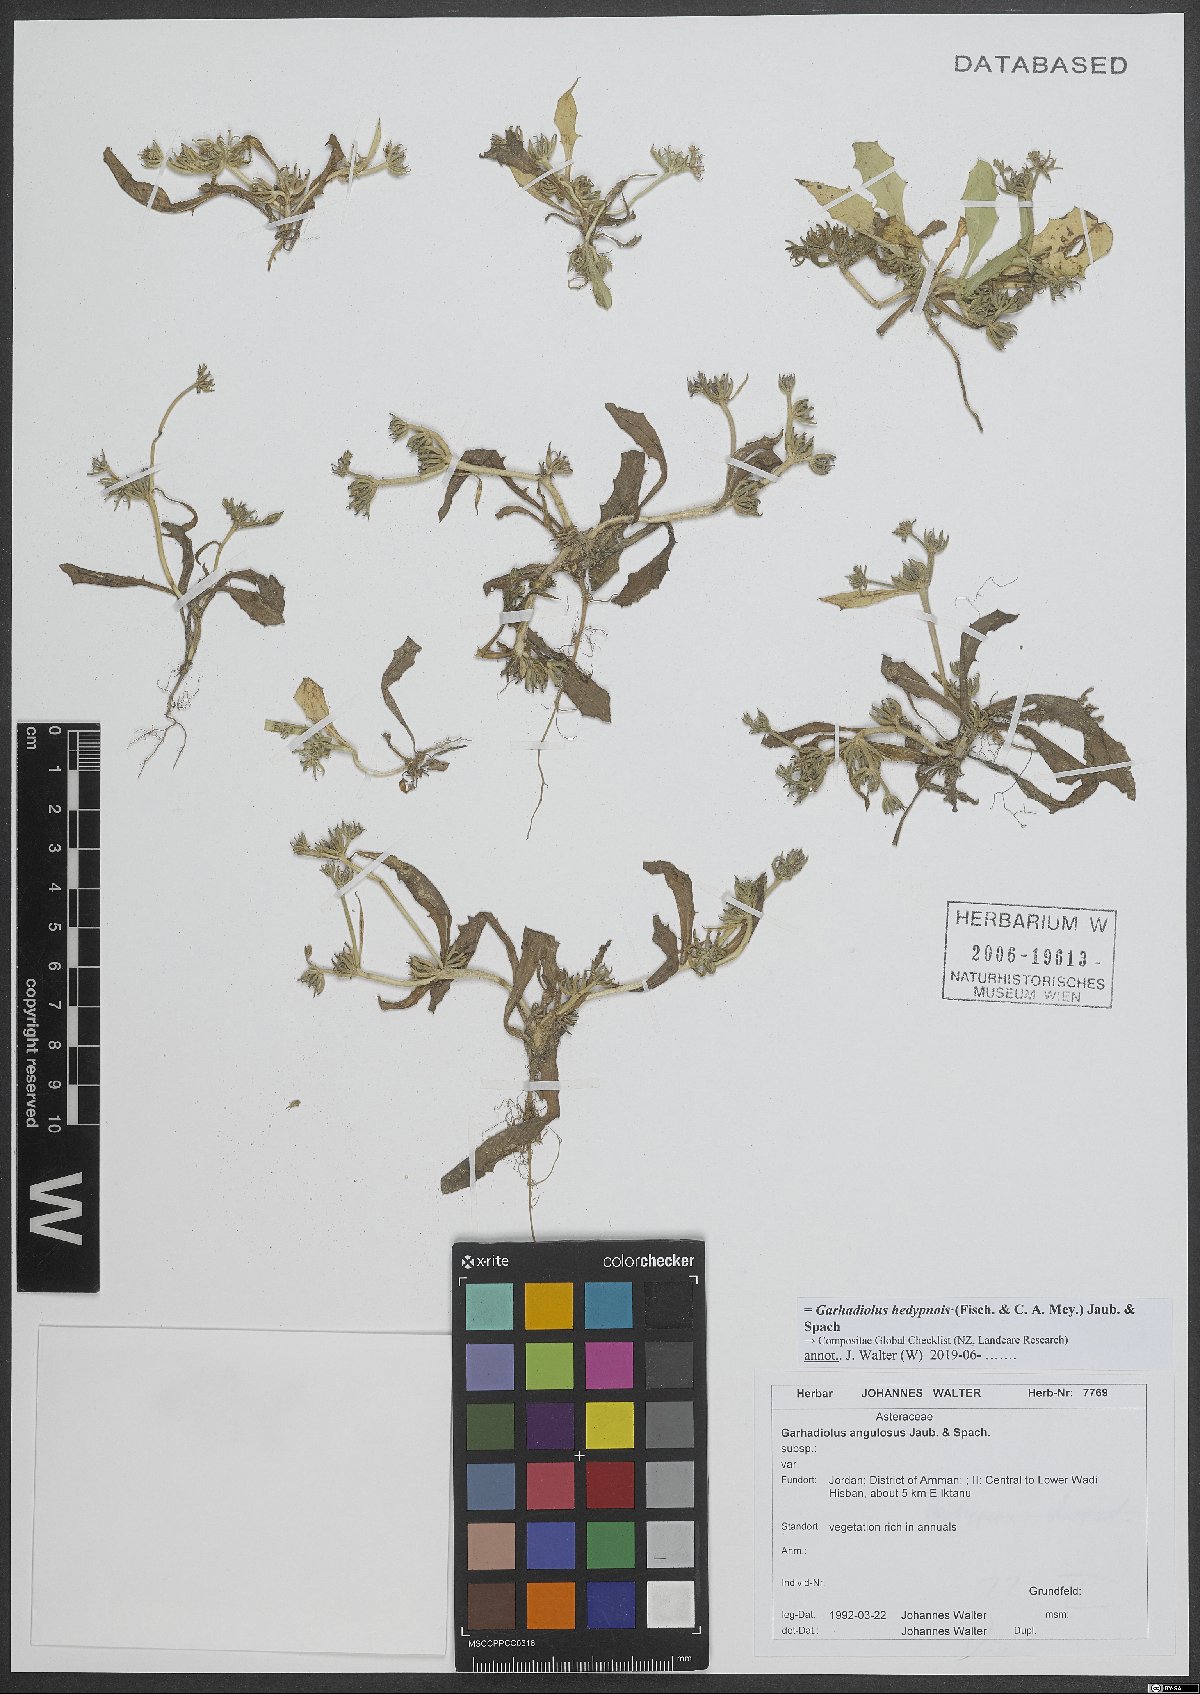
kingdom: Plantae
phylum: Tracheophyta
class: Magnoliopsida
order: Asterales
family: Asteraceae
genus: Garhadiolus
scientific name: Garhadiolus hedypnois
